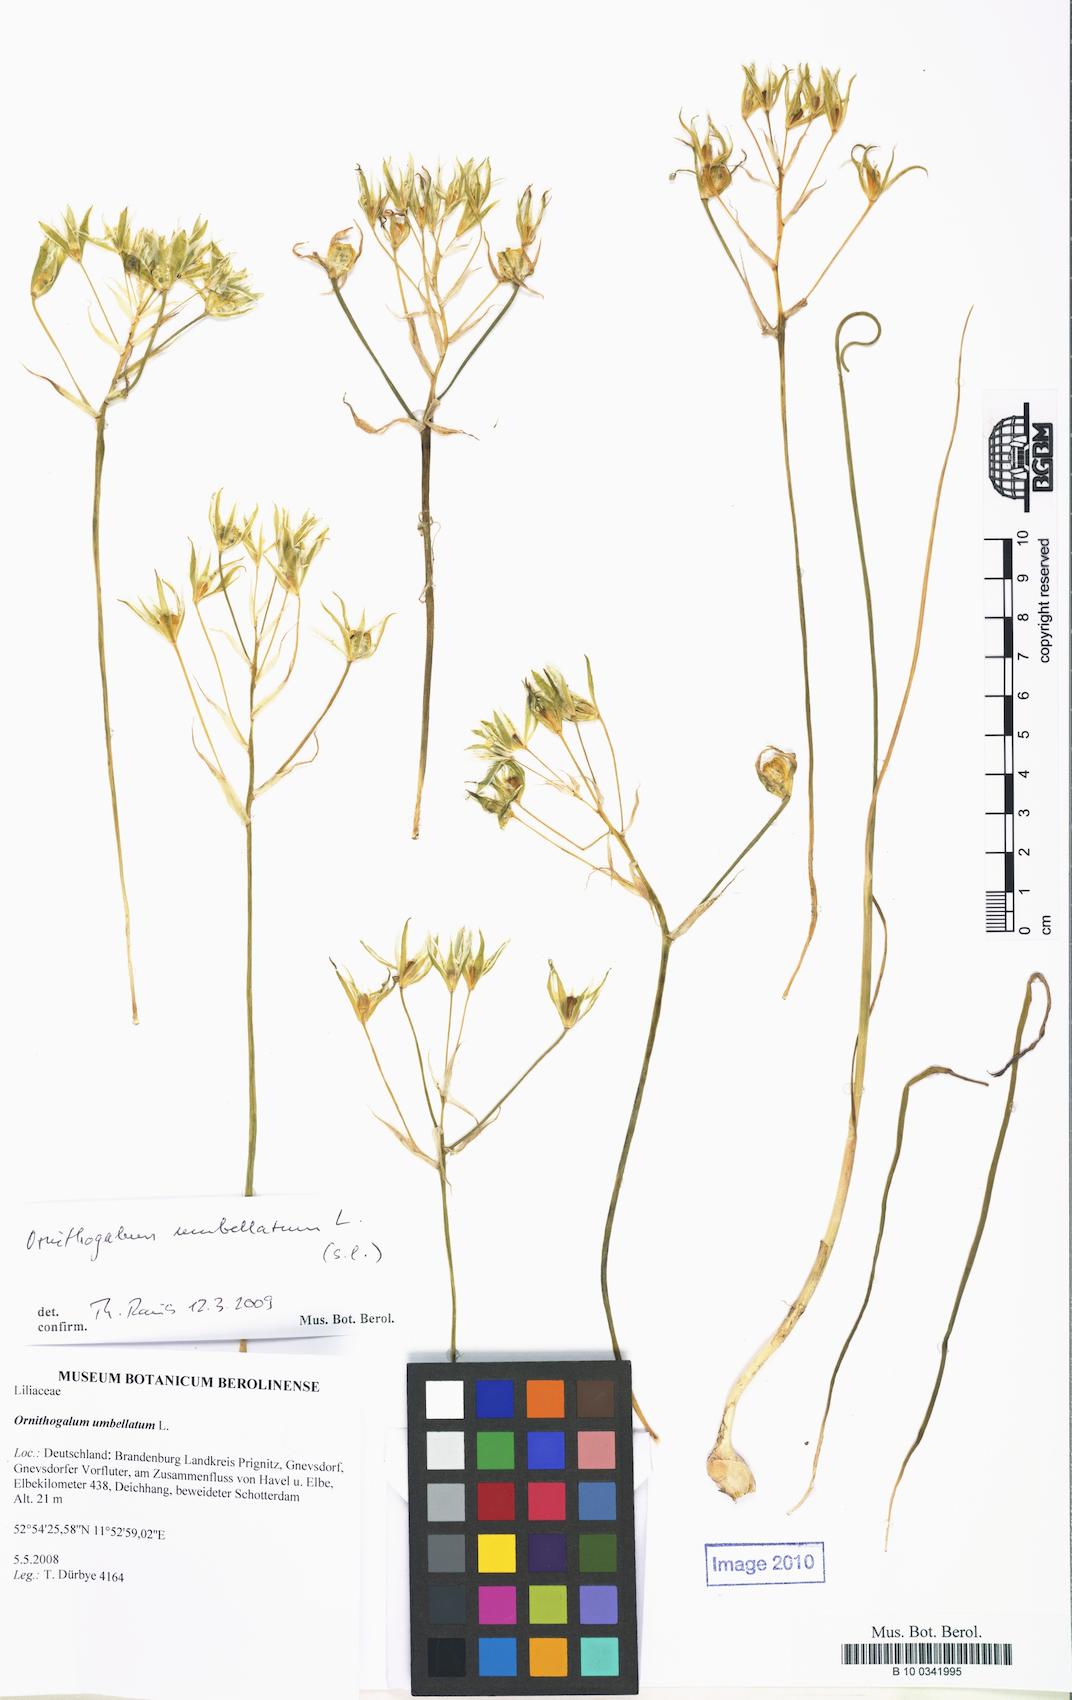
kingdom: Plantae
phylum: Tracheophyta
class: Liliopsida
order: Asparagales
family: Asparagaceae
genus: Ornithogalum
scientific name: Ornithogalum umbellatum
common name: Garden star-of-bethlehem
